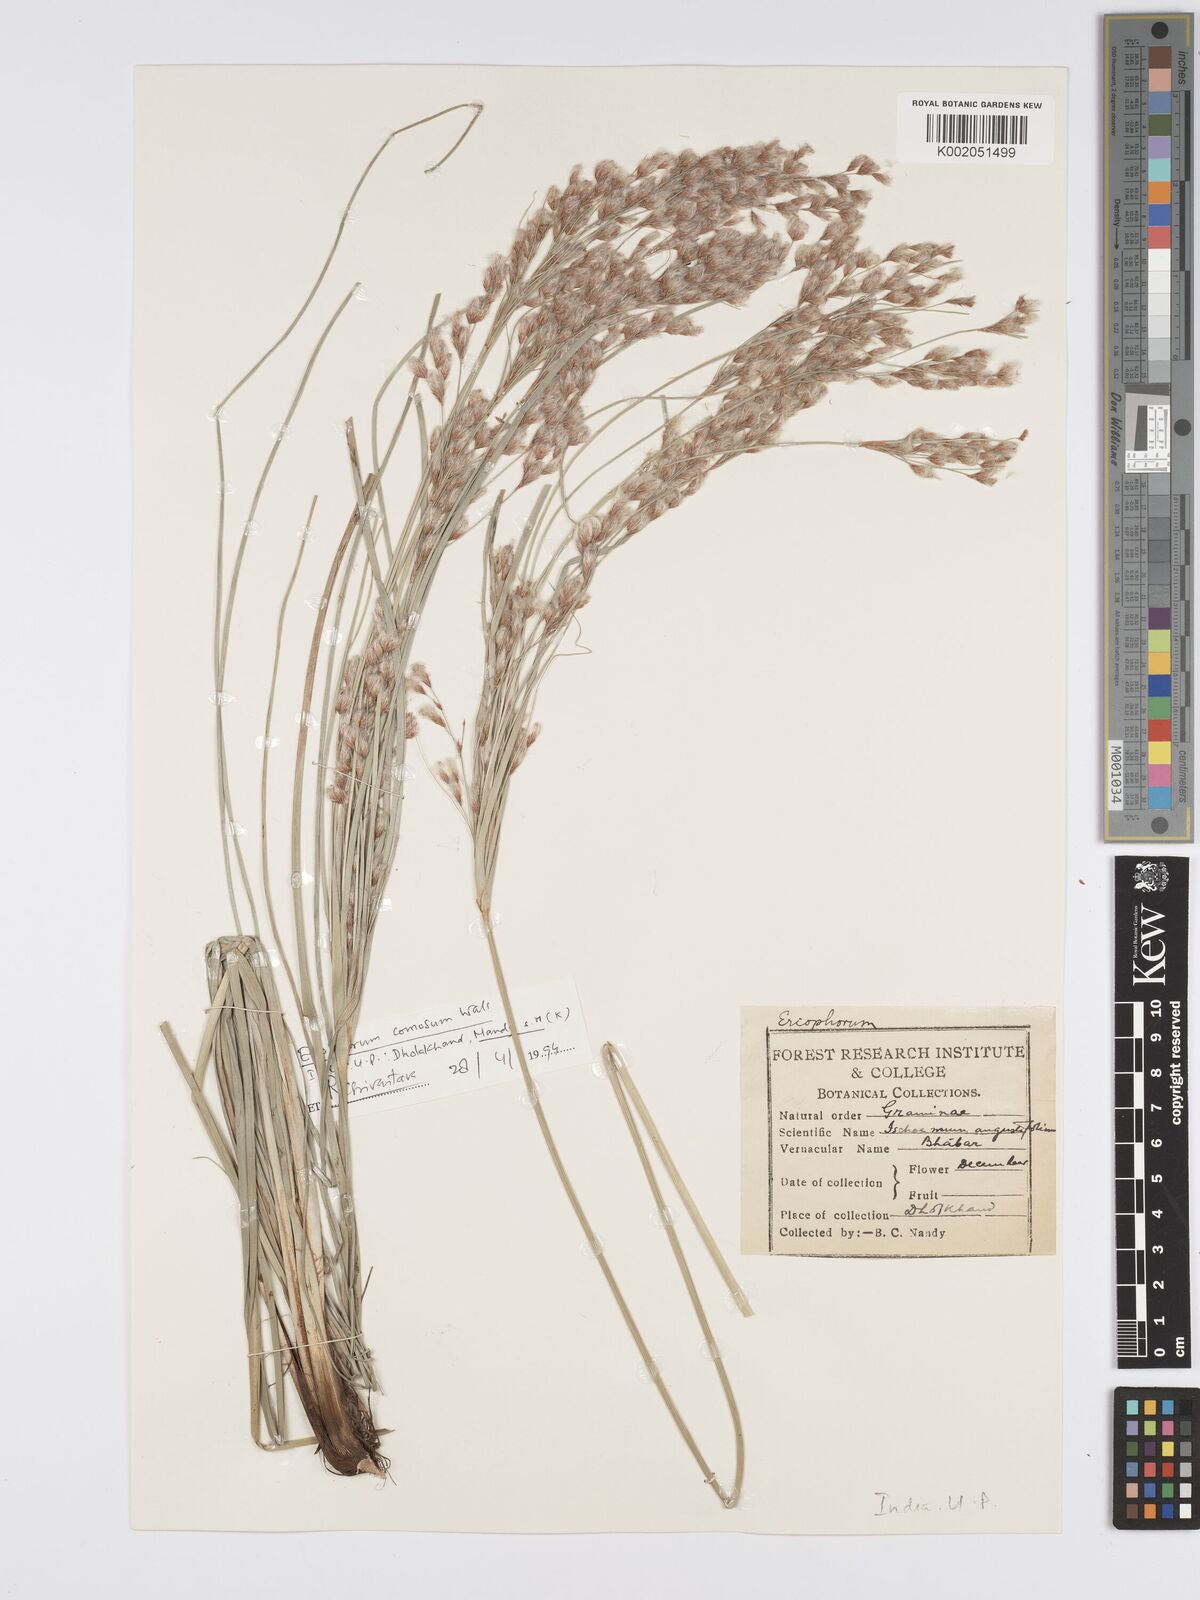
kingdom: Plantae
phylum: Tracheophyta
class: Liliopsida
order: Poales
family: Cyperaceae
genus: Eriophorum
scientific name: Eriophorum
